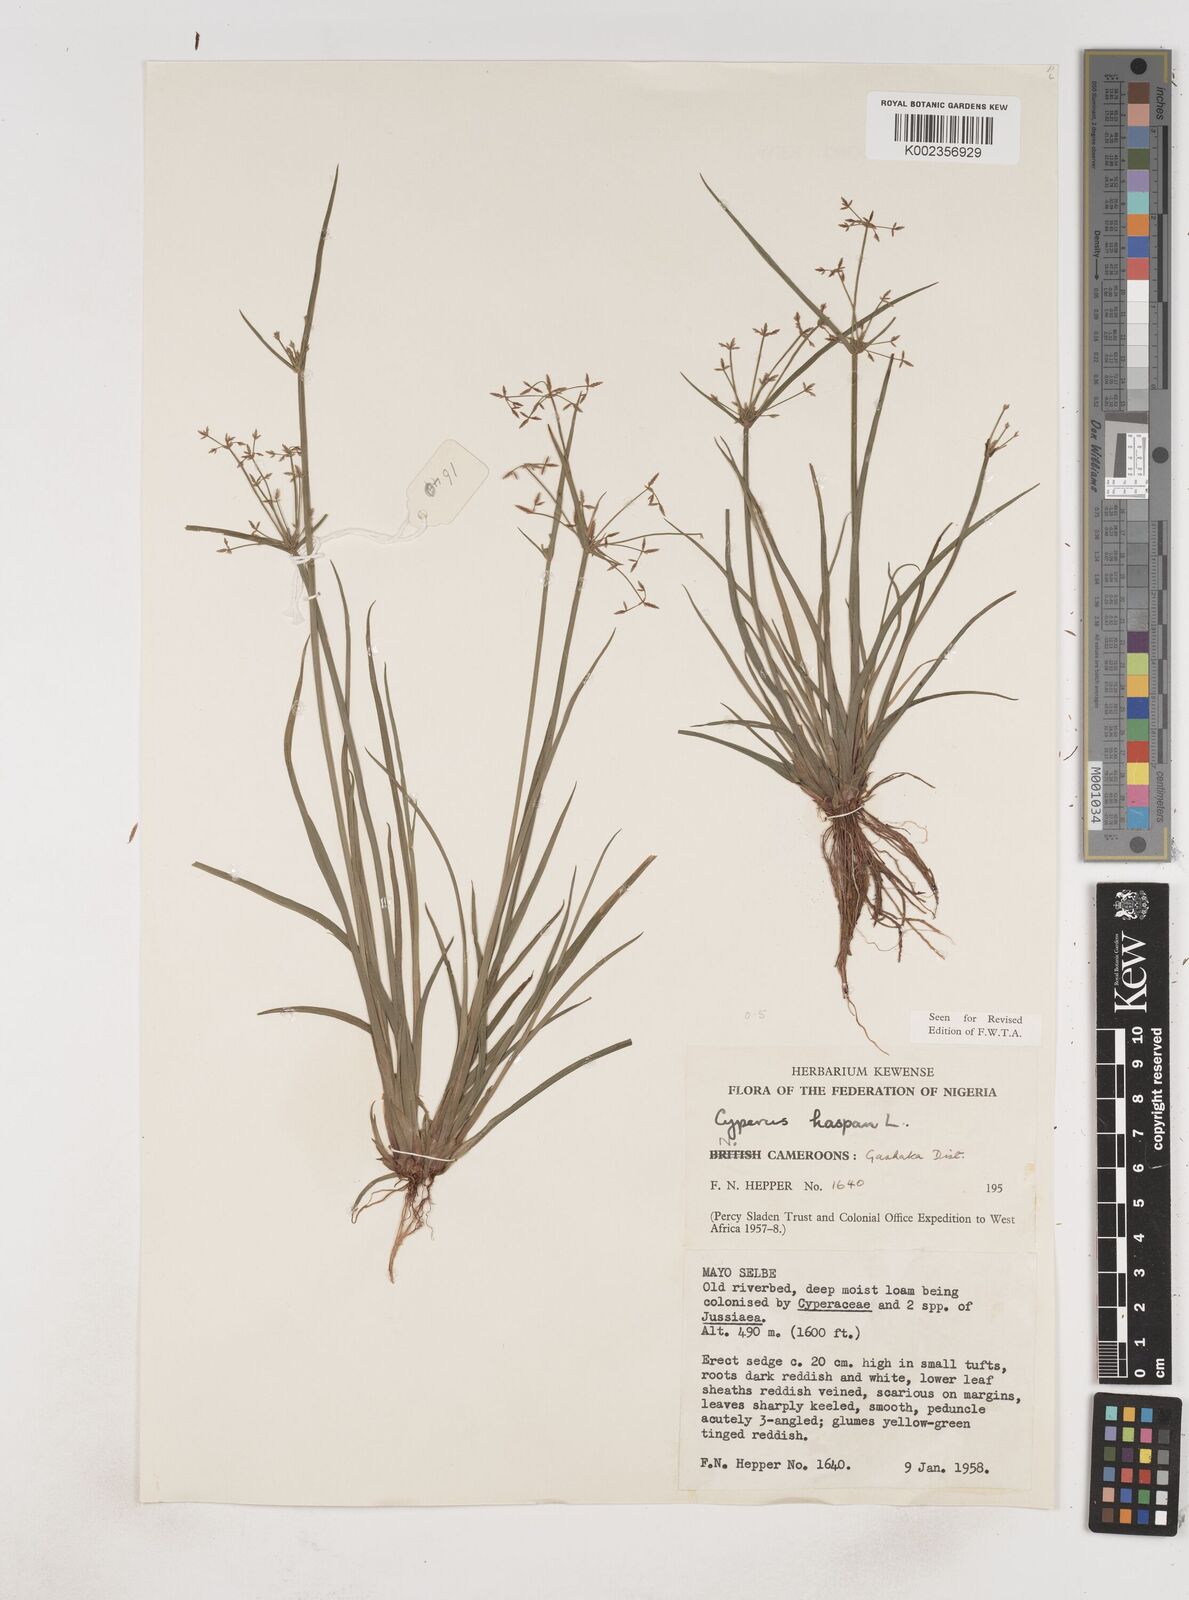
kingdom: Plantae
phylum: Tracheophyta
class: Liliopsida
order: Poales
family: Cyperaceae
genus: Cyperus
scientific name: Cyperus haspan
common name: Haspan flatsedge
